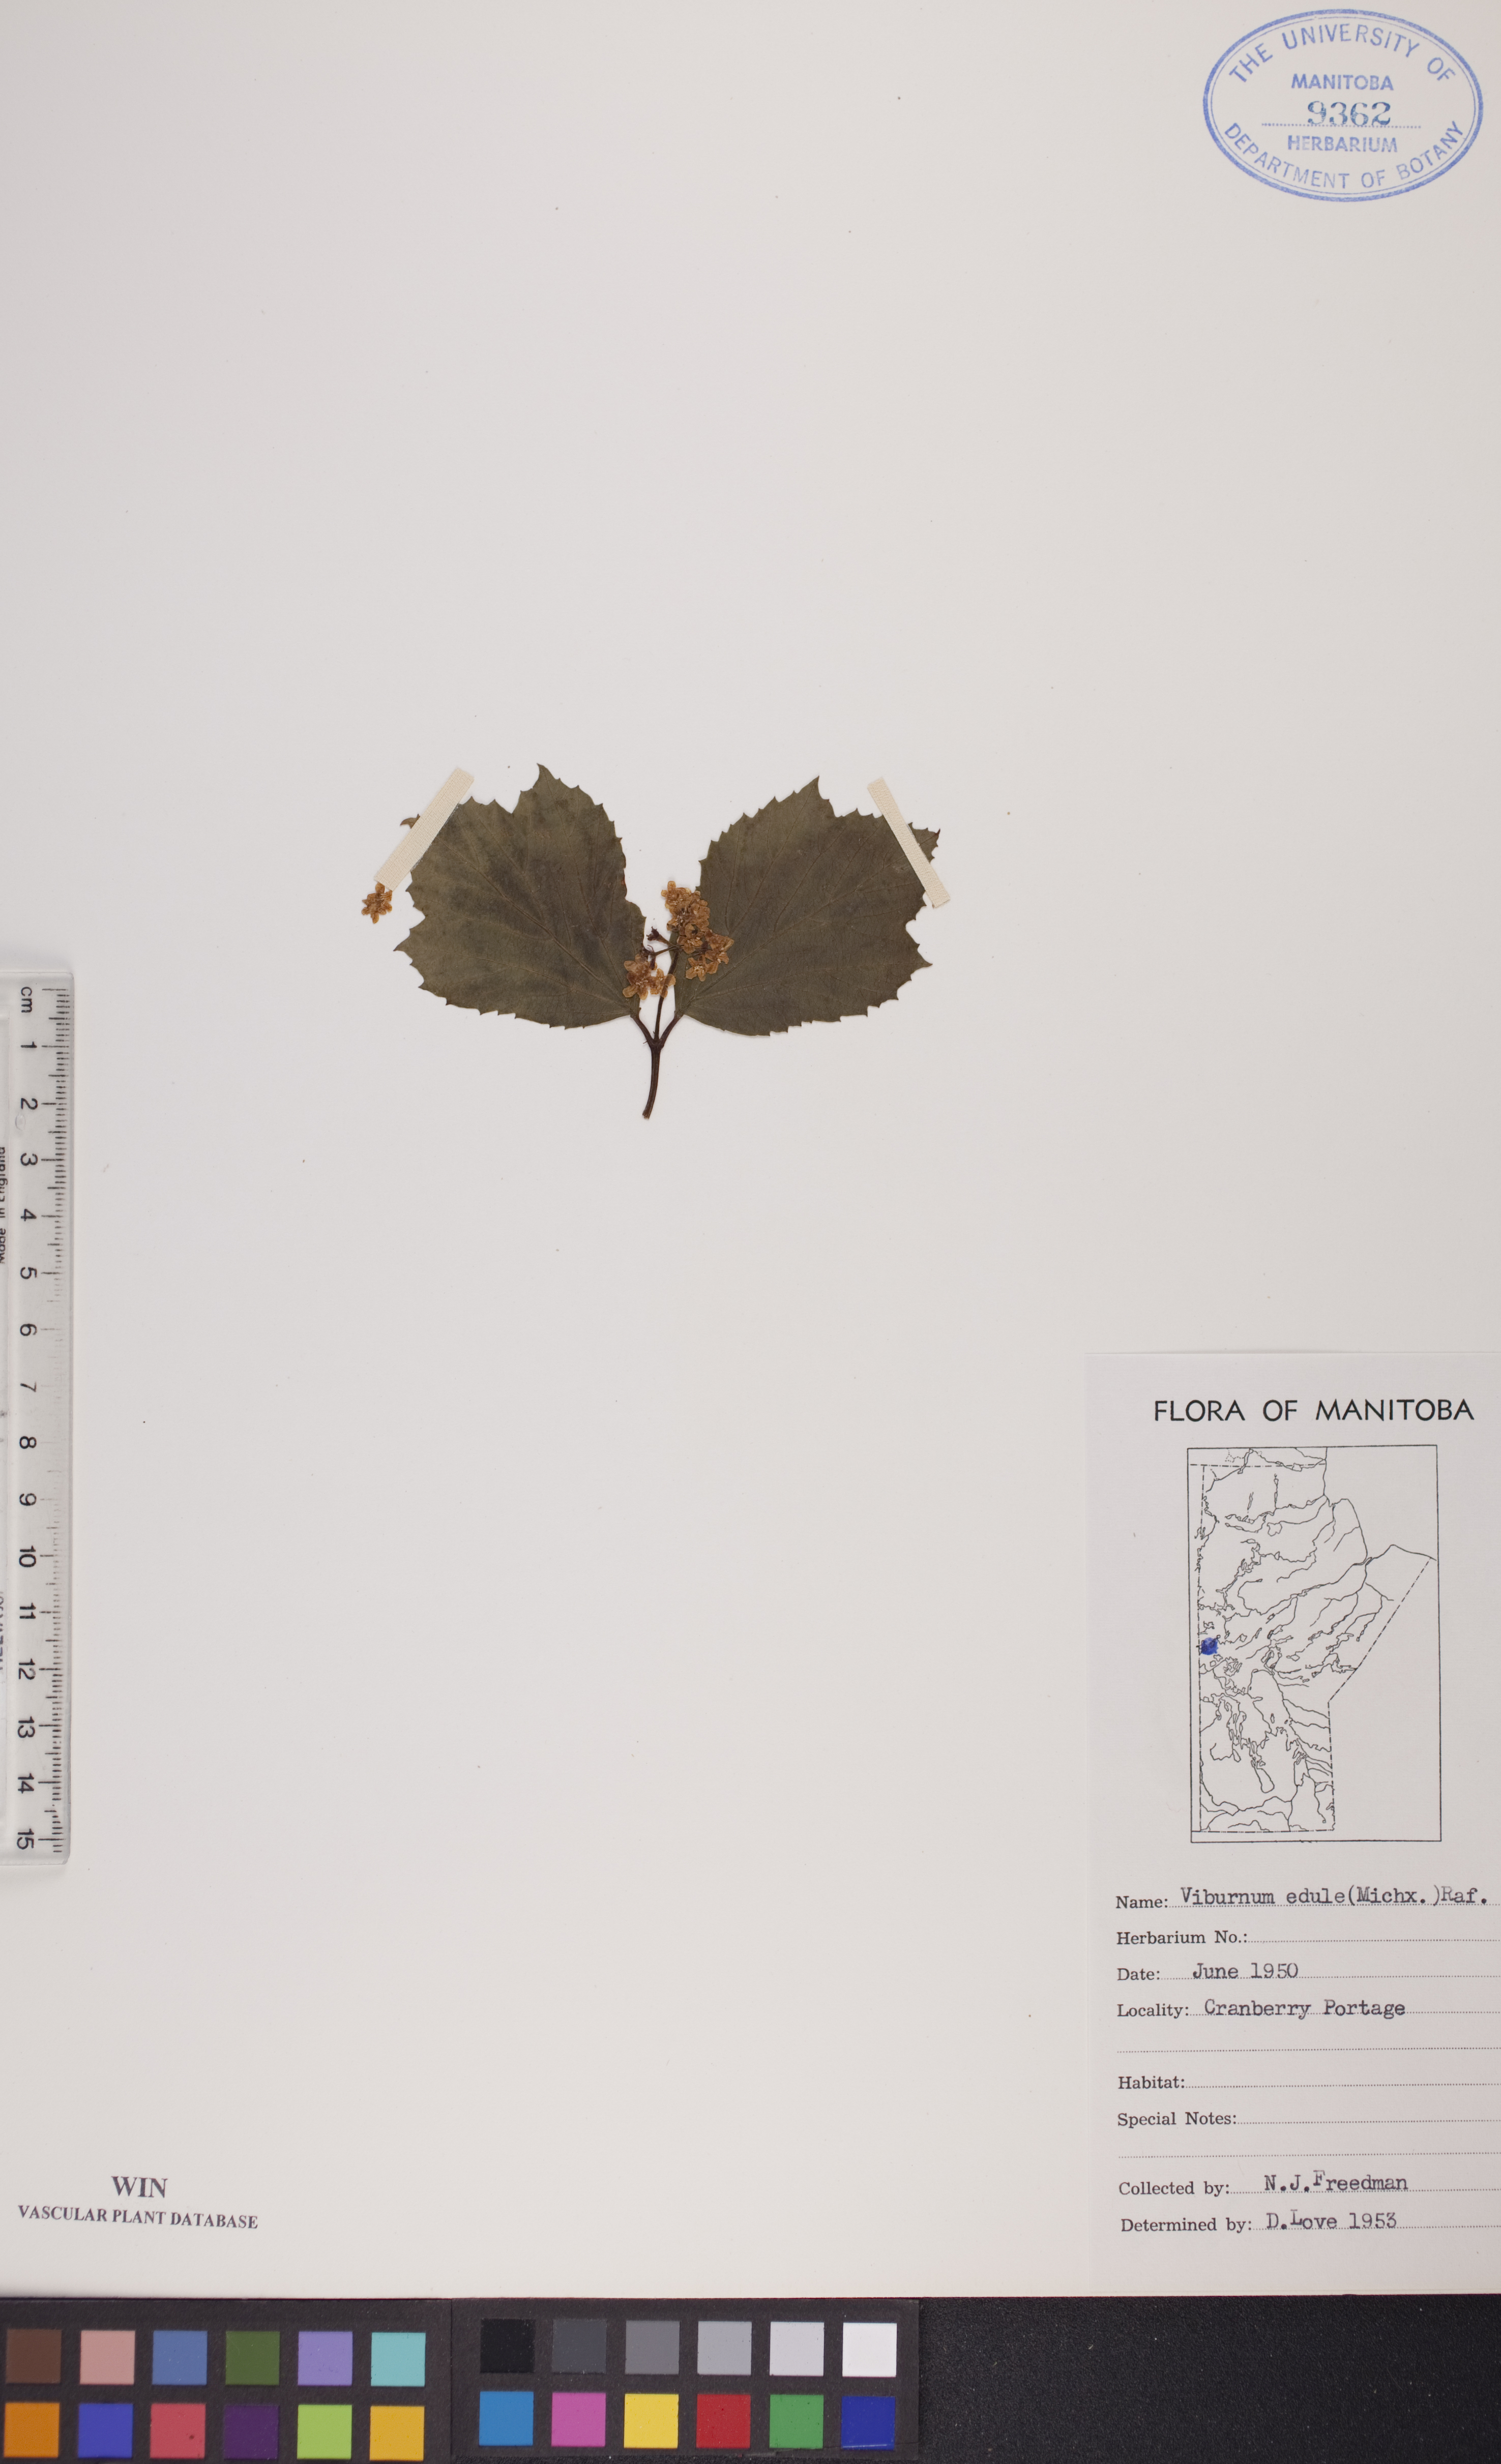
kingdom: Plantae
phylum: Tracheophyta
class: Magnoliopsida
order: Dipsacales
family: Viburnaceae
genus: Viburnum
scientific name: Viburnum edule
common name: Mooseberry
